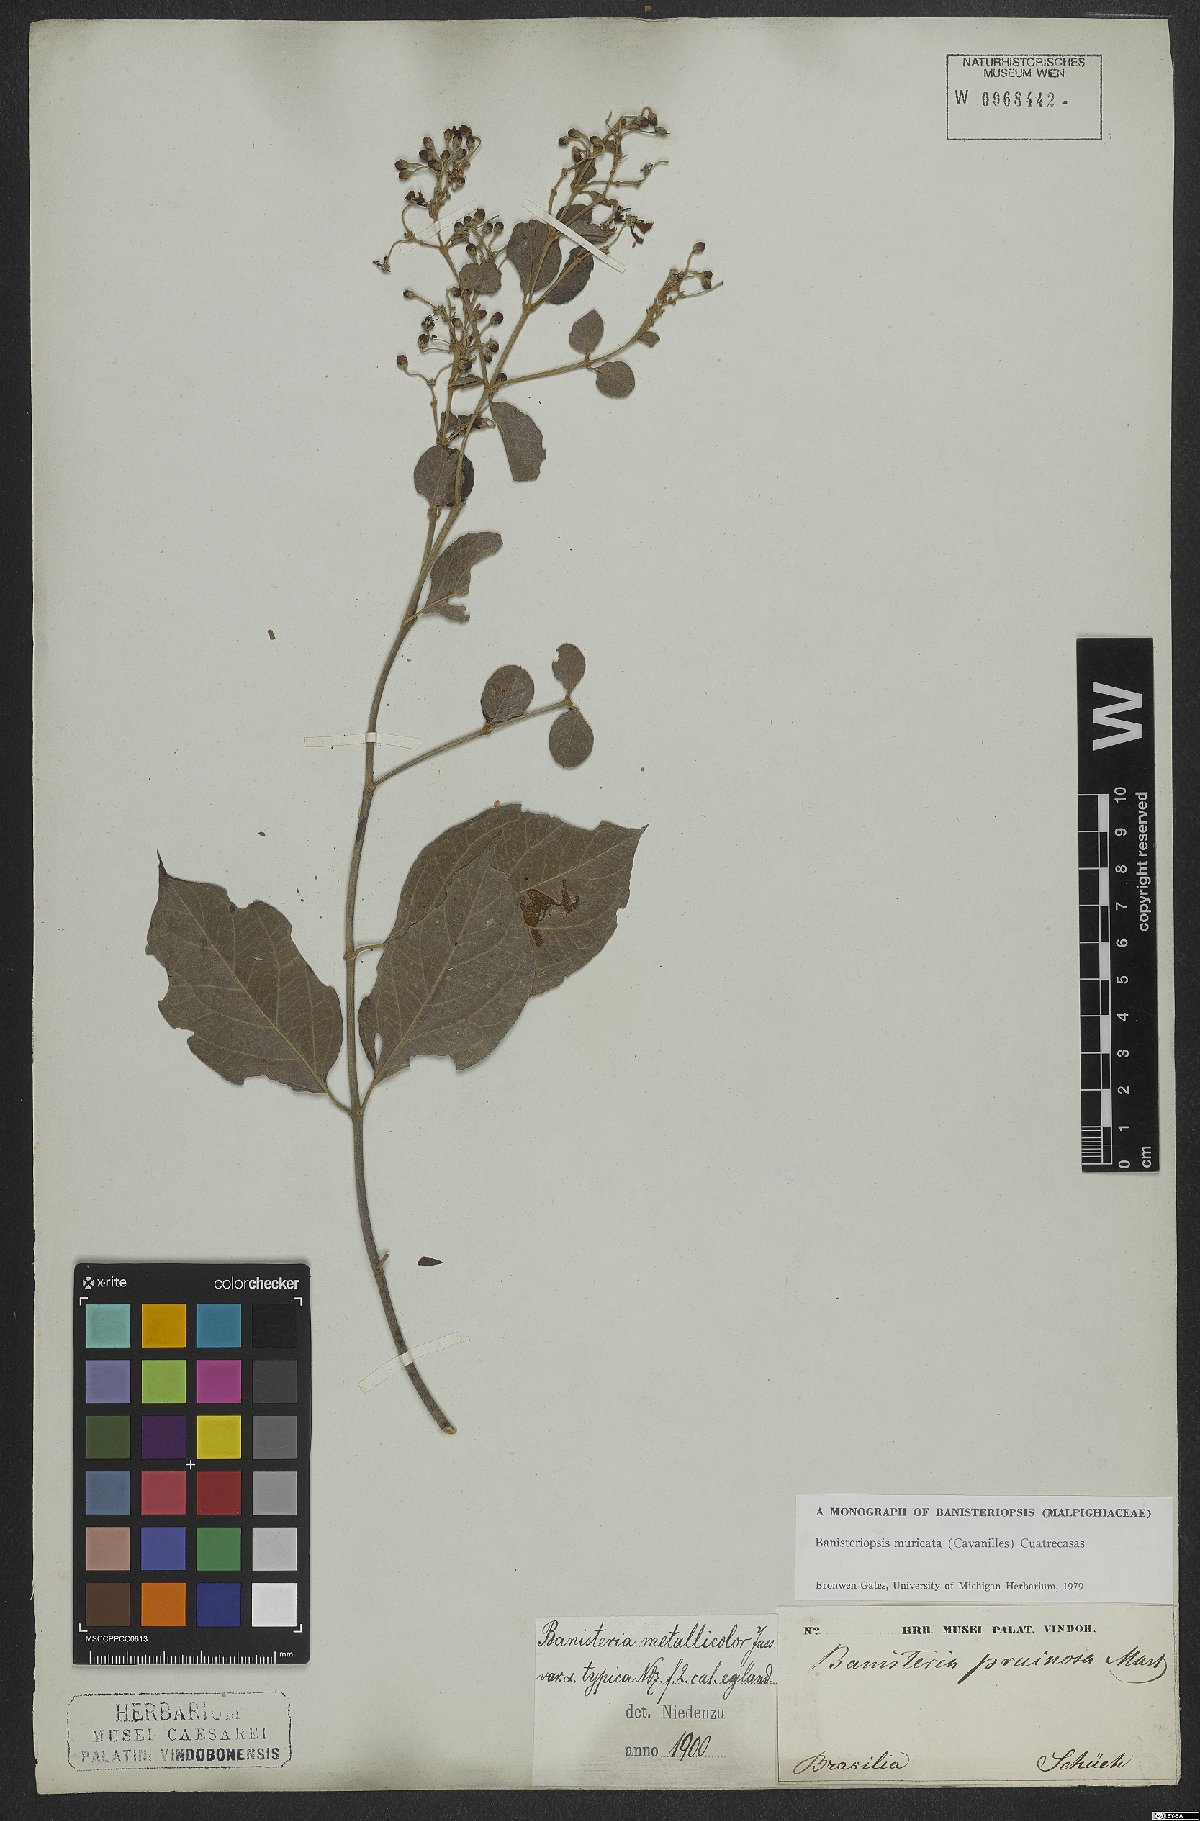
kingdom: Plantae
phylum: Tracheophyta
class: Magnoliopsida
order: Malpighiales
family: Malpighiaceae
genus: Banisteriopsis
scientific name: Banisteriopsis muricata
